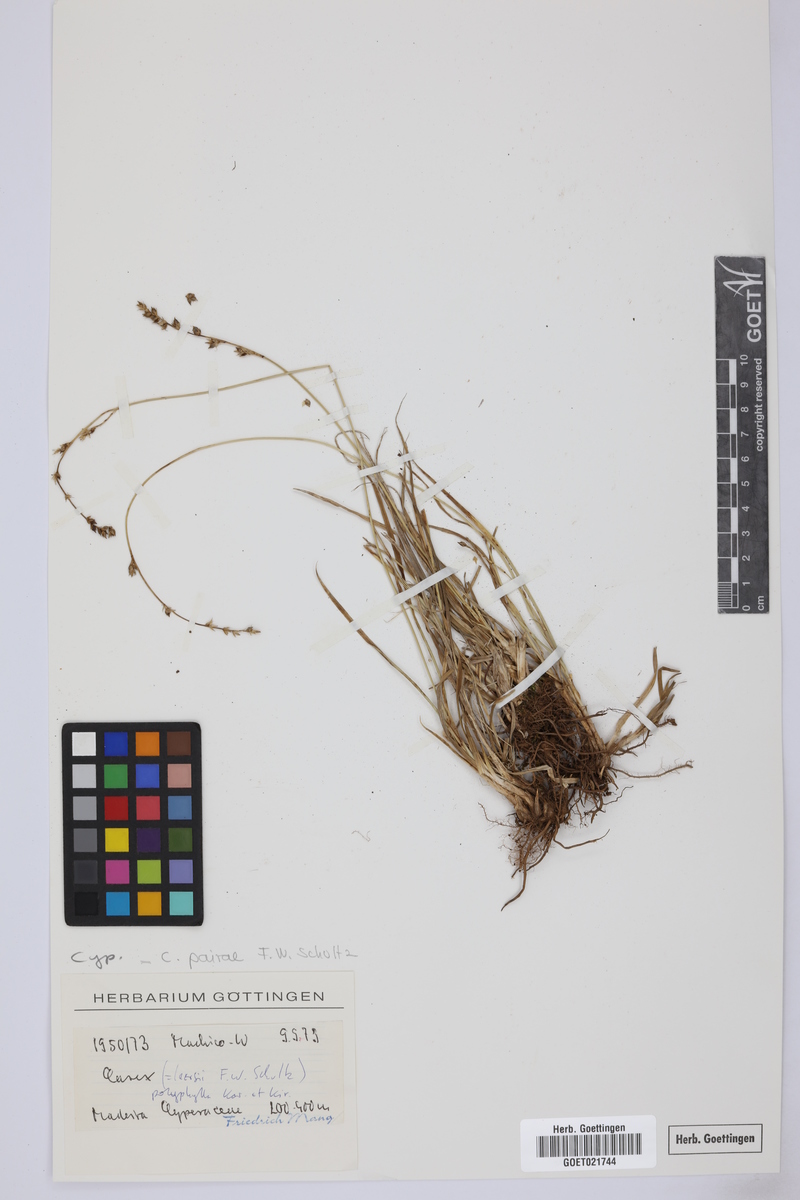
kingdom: Plantae
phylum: Tracheophyta
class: Liliopsida
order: Poales
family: Cyperaceae
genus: Carex
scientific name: Carex pairae
